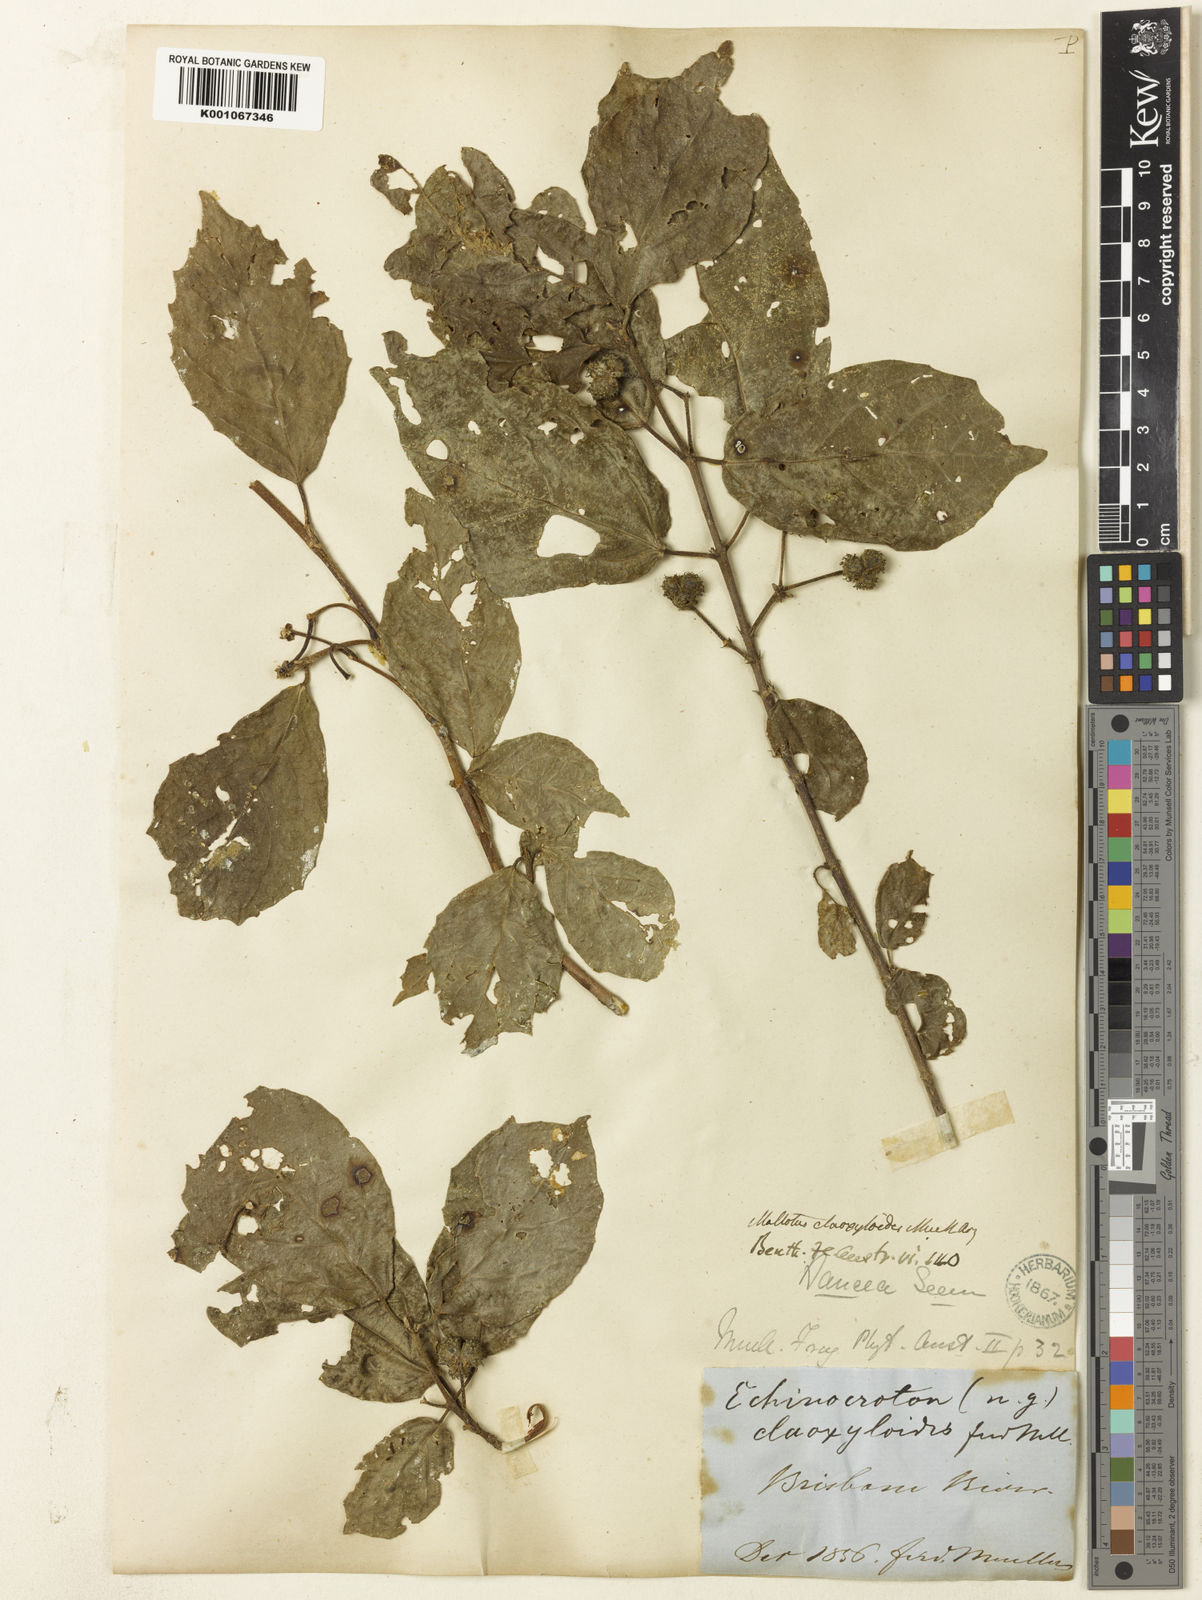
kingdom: Plantae
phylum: Tracheophyta
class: Magnoliopsida
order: Malpighiales
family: Euphorbiaceae
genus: Mallotus
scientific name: Mallotus claoxyloides
